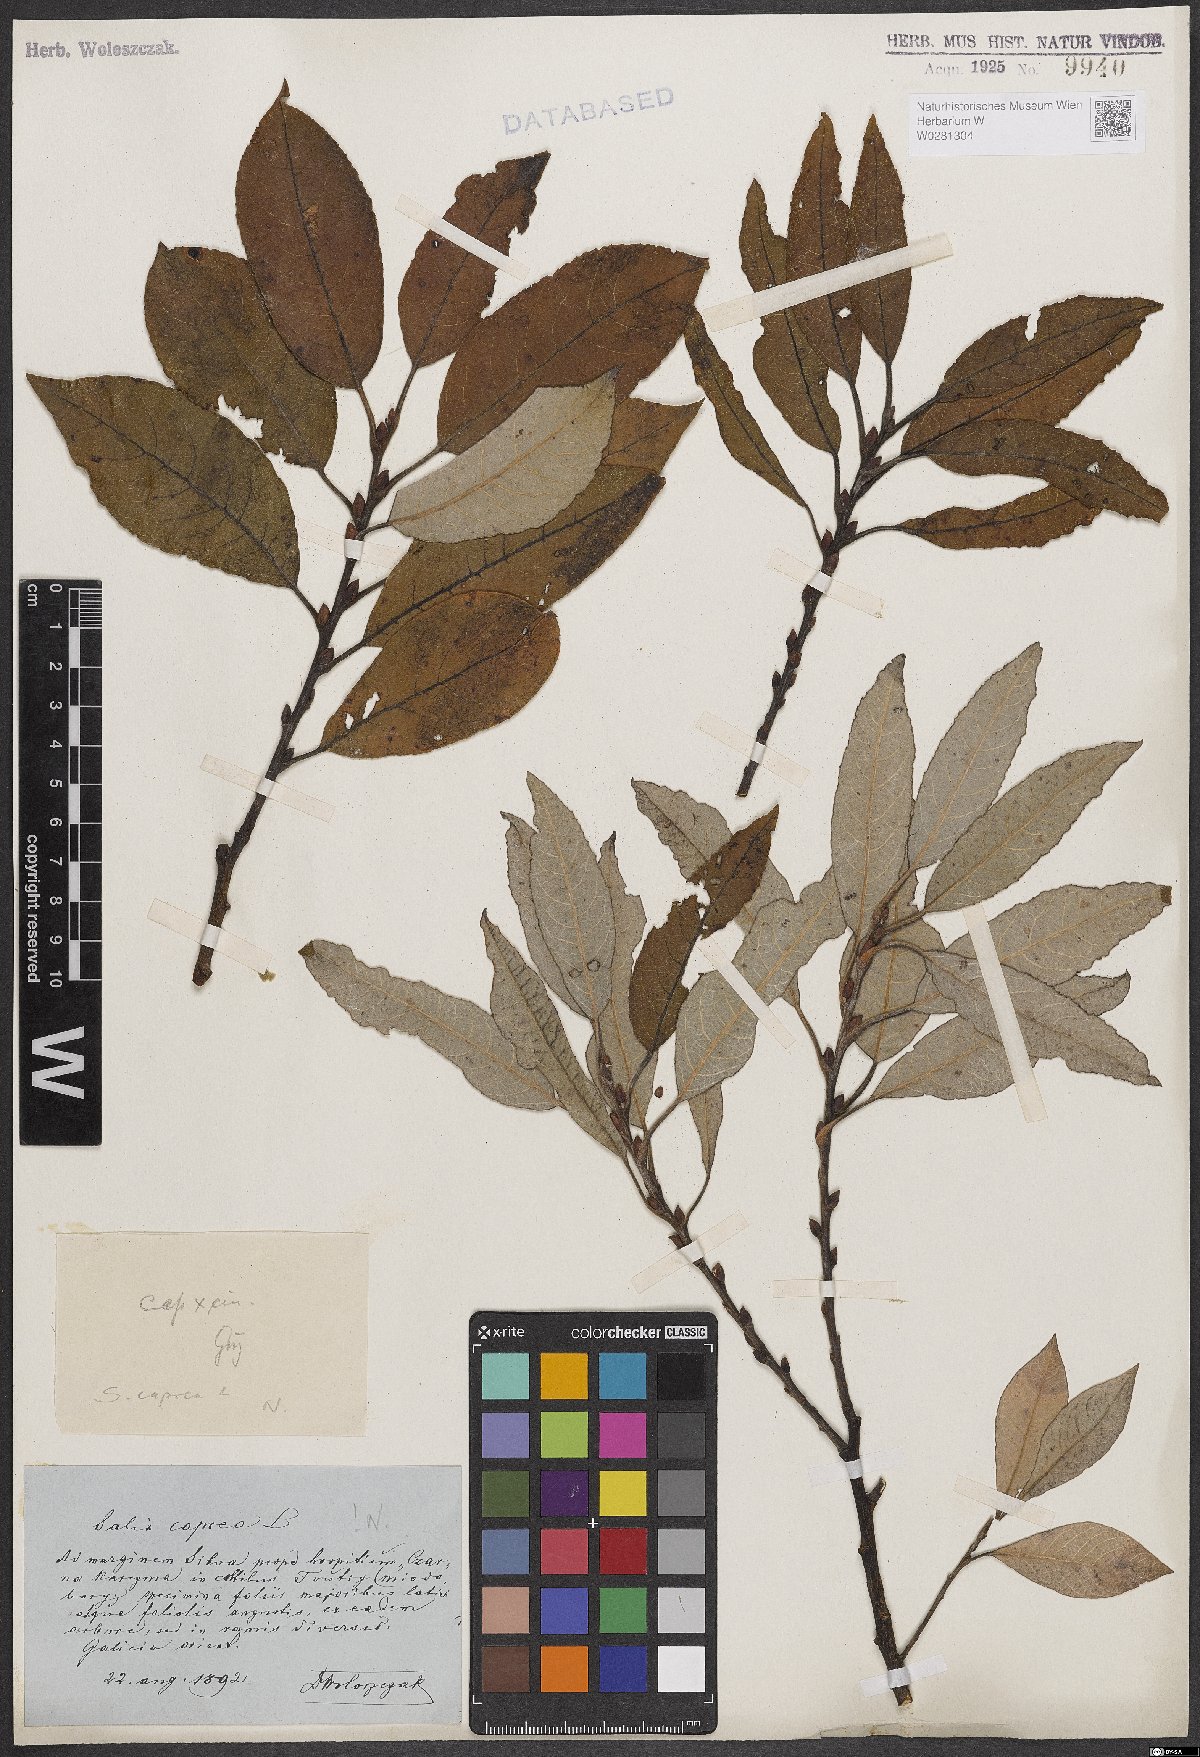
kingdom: Plantae
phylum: Tracheophyta
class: Magnoliopsida
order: Malpighiales
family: Salicaceae
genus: Salix
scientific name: Salix caprea
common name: Goat willow
